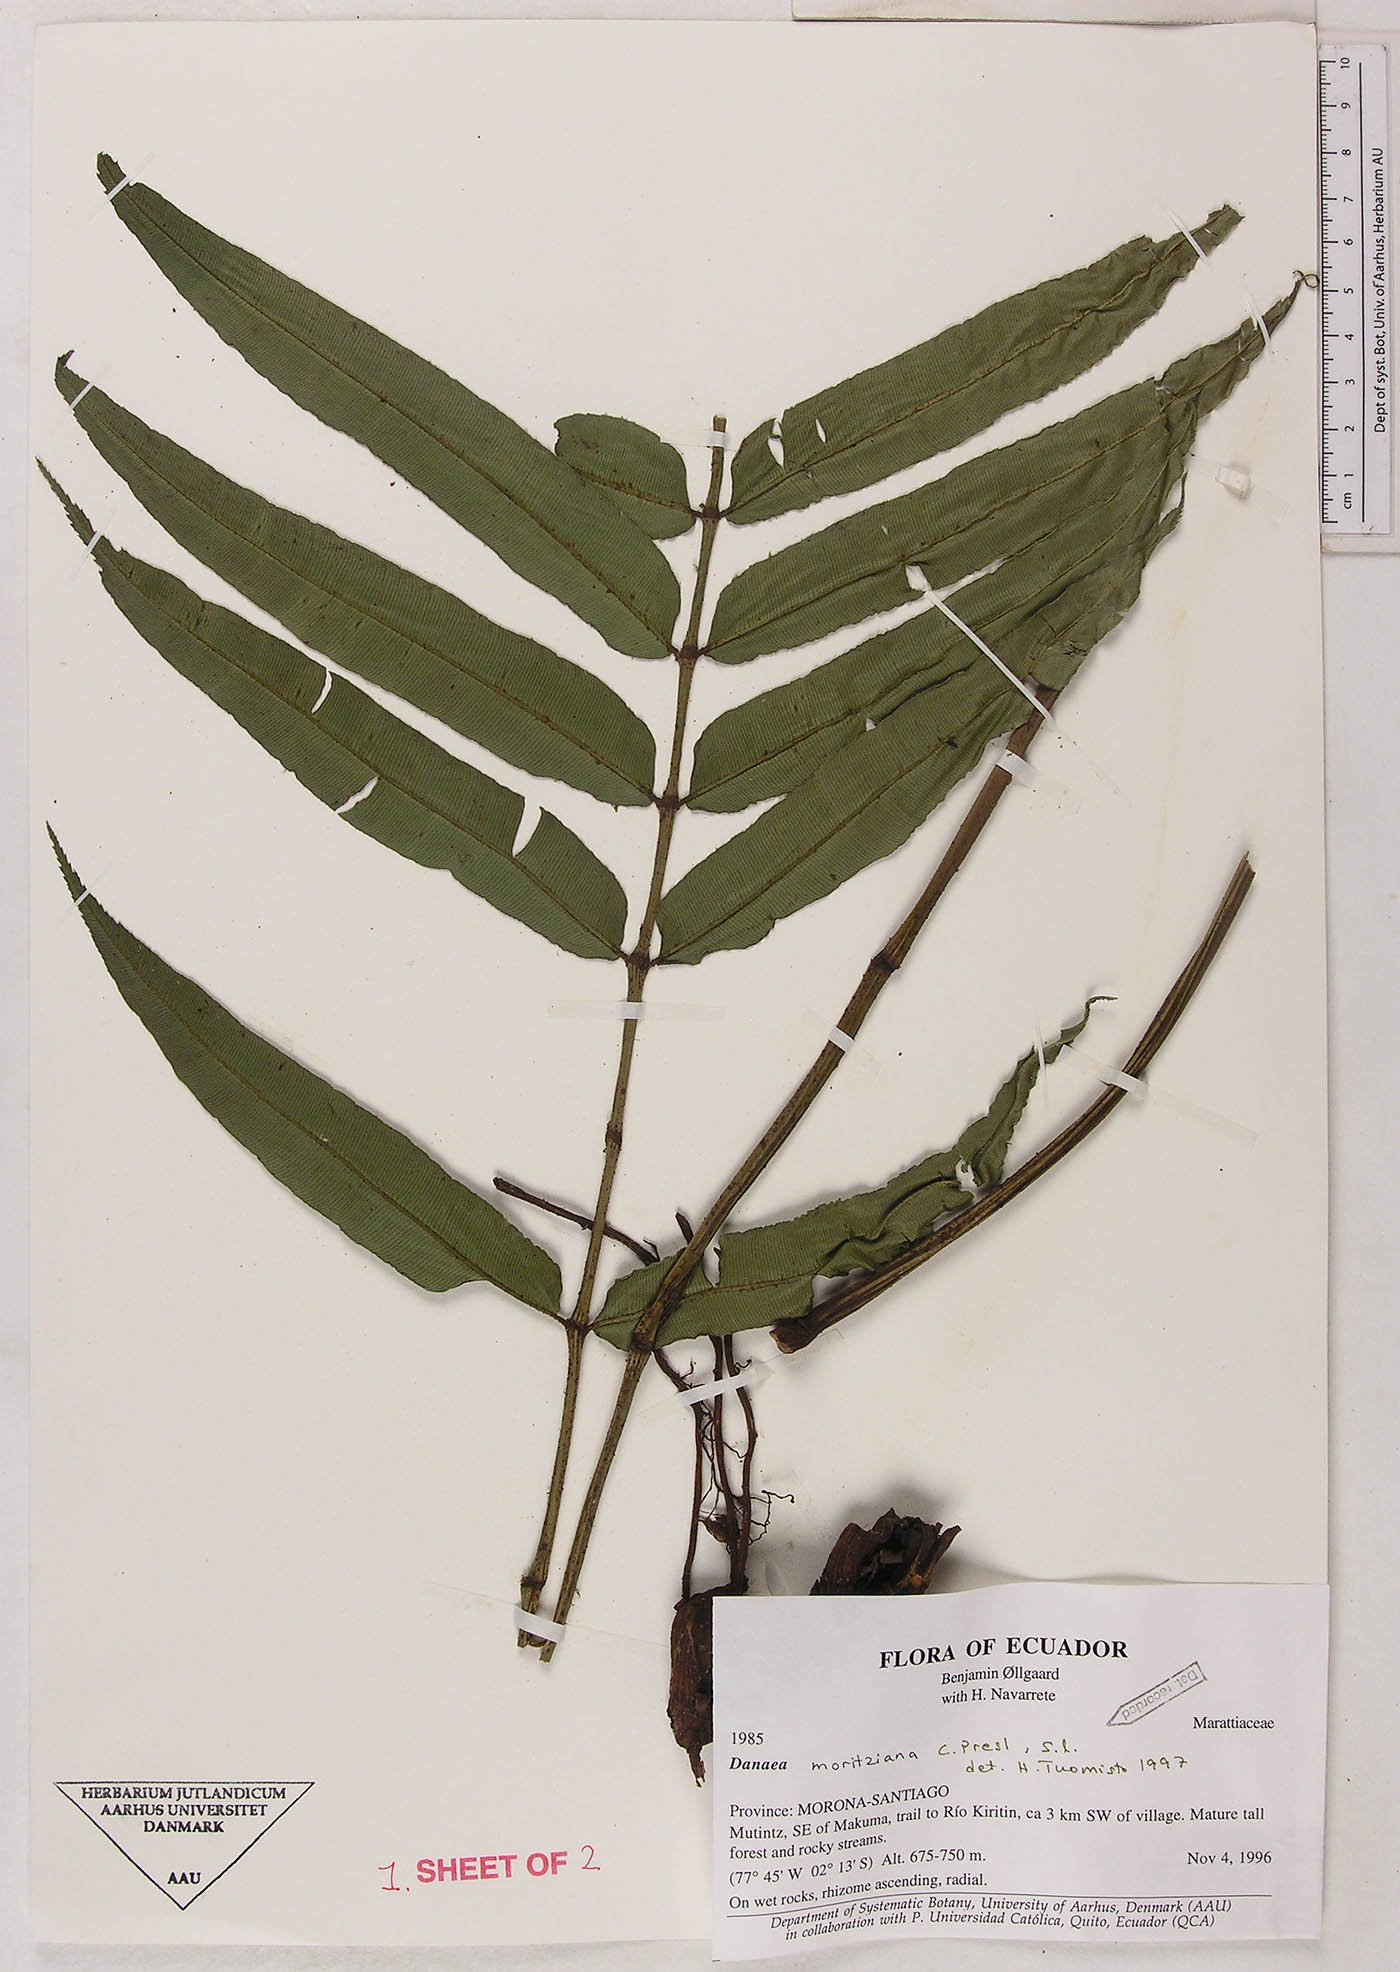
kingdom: Plantae
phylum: Tracheophyta
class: Polypodiopsida
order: Marattiales
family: Marattiaceae
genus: Danaea
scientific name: Danaea
